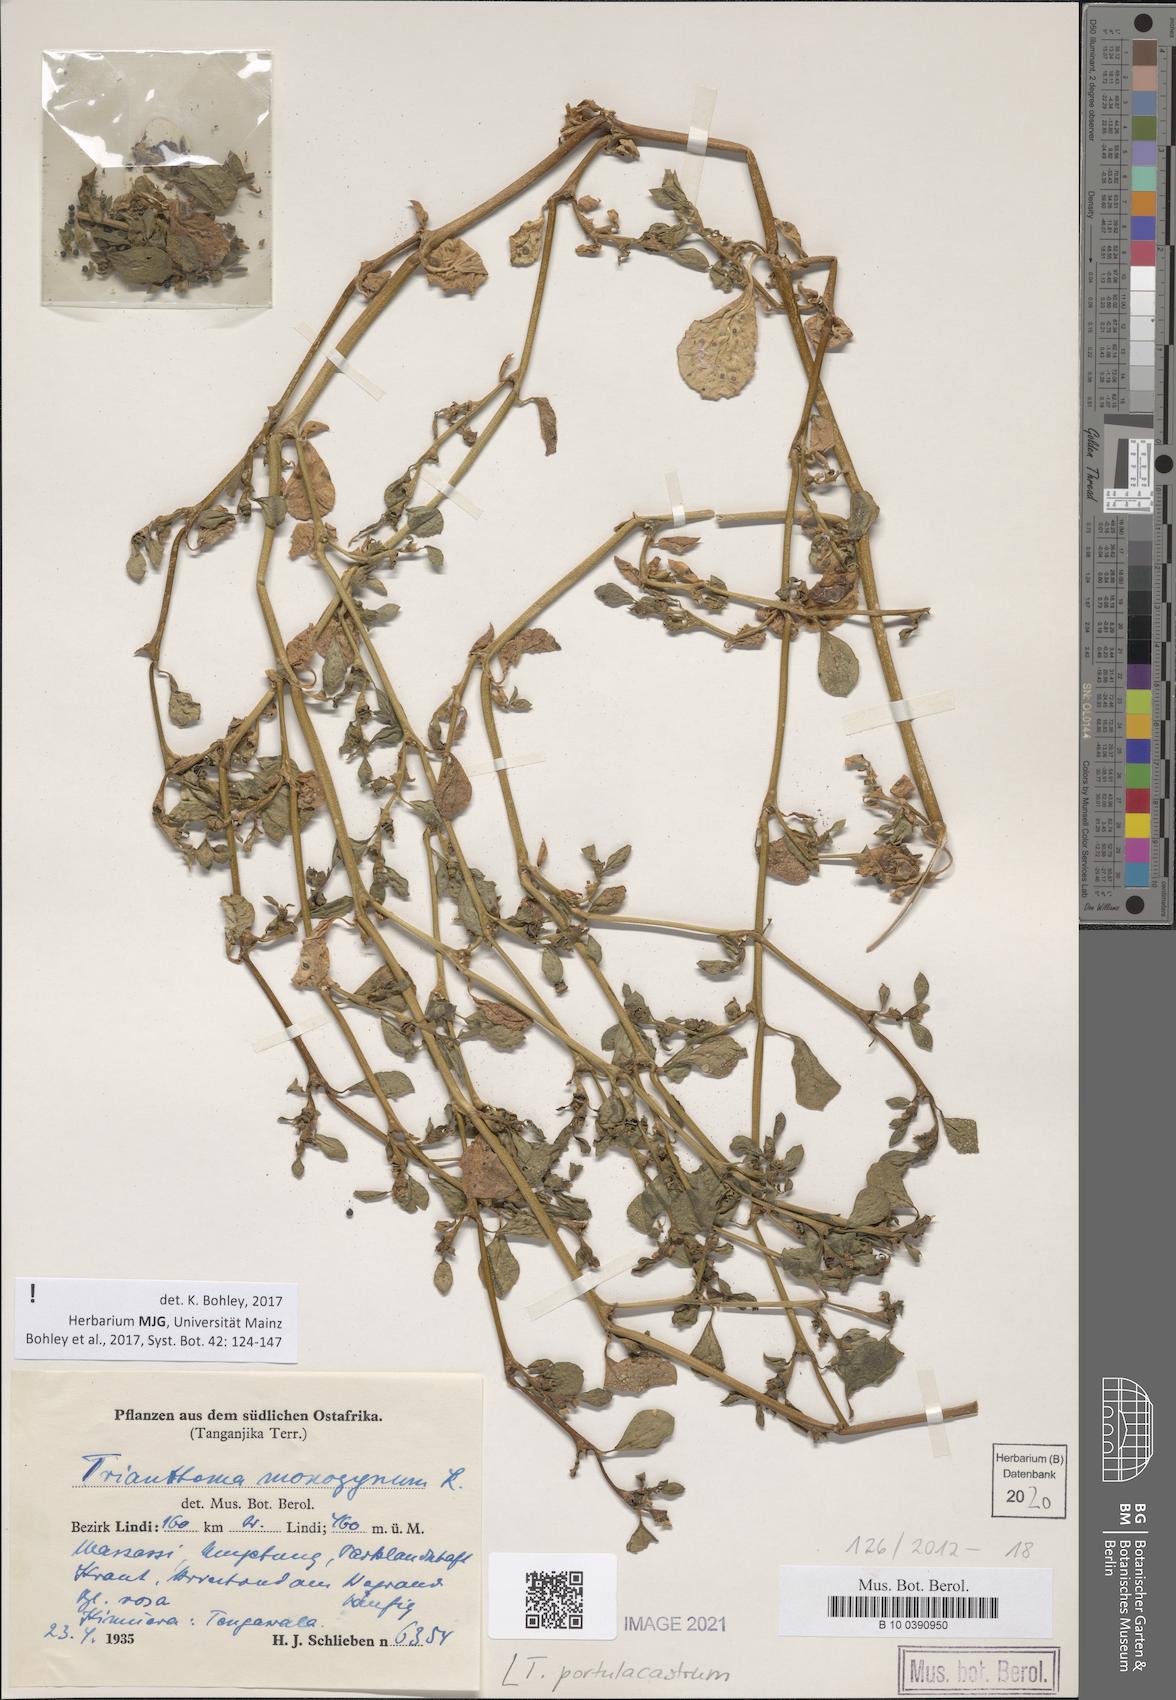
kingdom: Plantae
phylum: Tracheophyta
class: Magnoliopsida
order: Caryophyllales
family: Aizoaceae
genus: Trianthema
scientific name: Trianthema portulacastrum
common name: Desert horsepurslane
